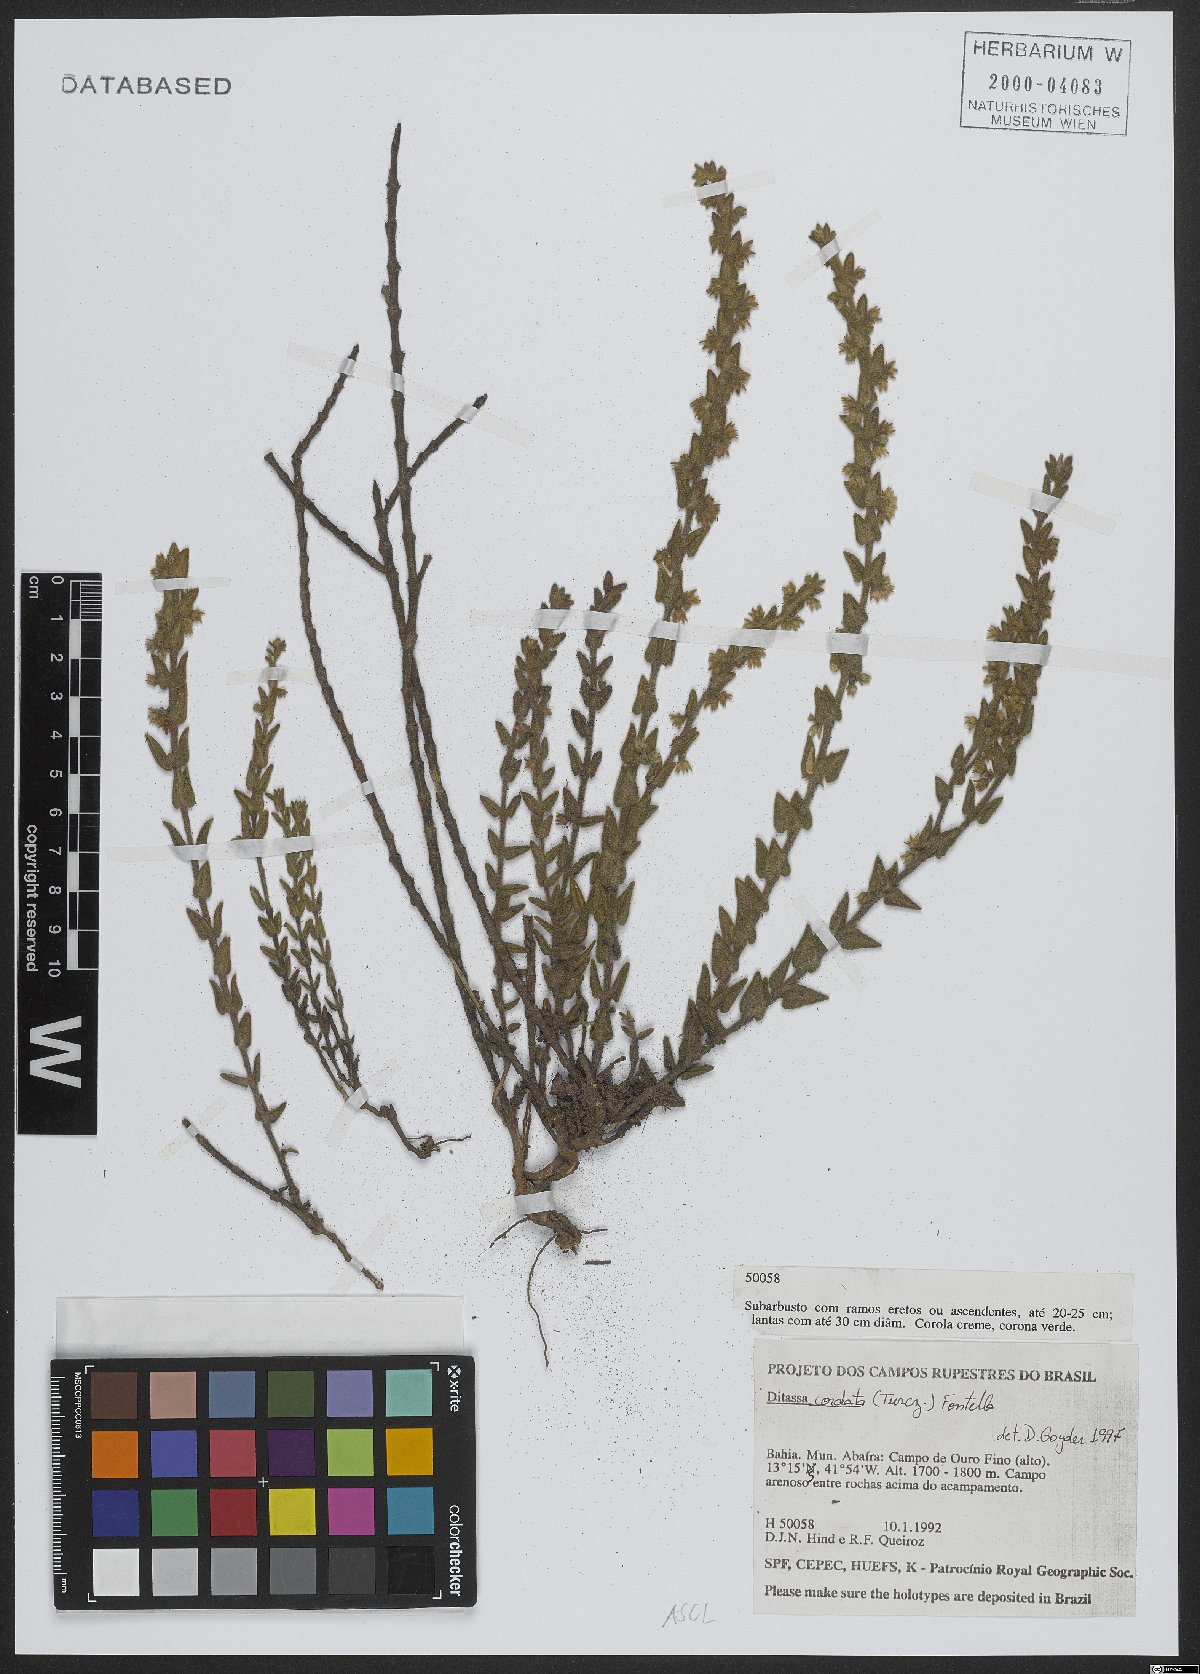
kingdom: Plantae
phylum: Tracheophyta
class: Magnoliopsida
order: Gentianales
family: Apocynaceae
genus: Minaria
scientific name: Minaria cordata
